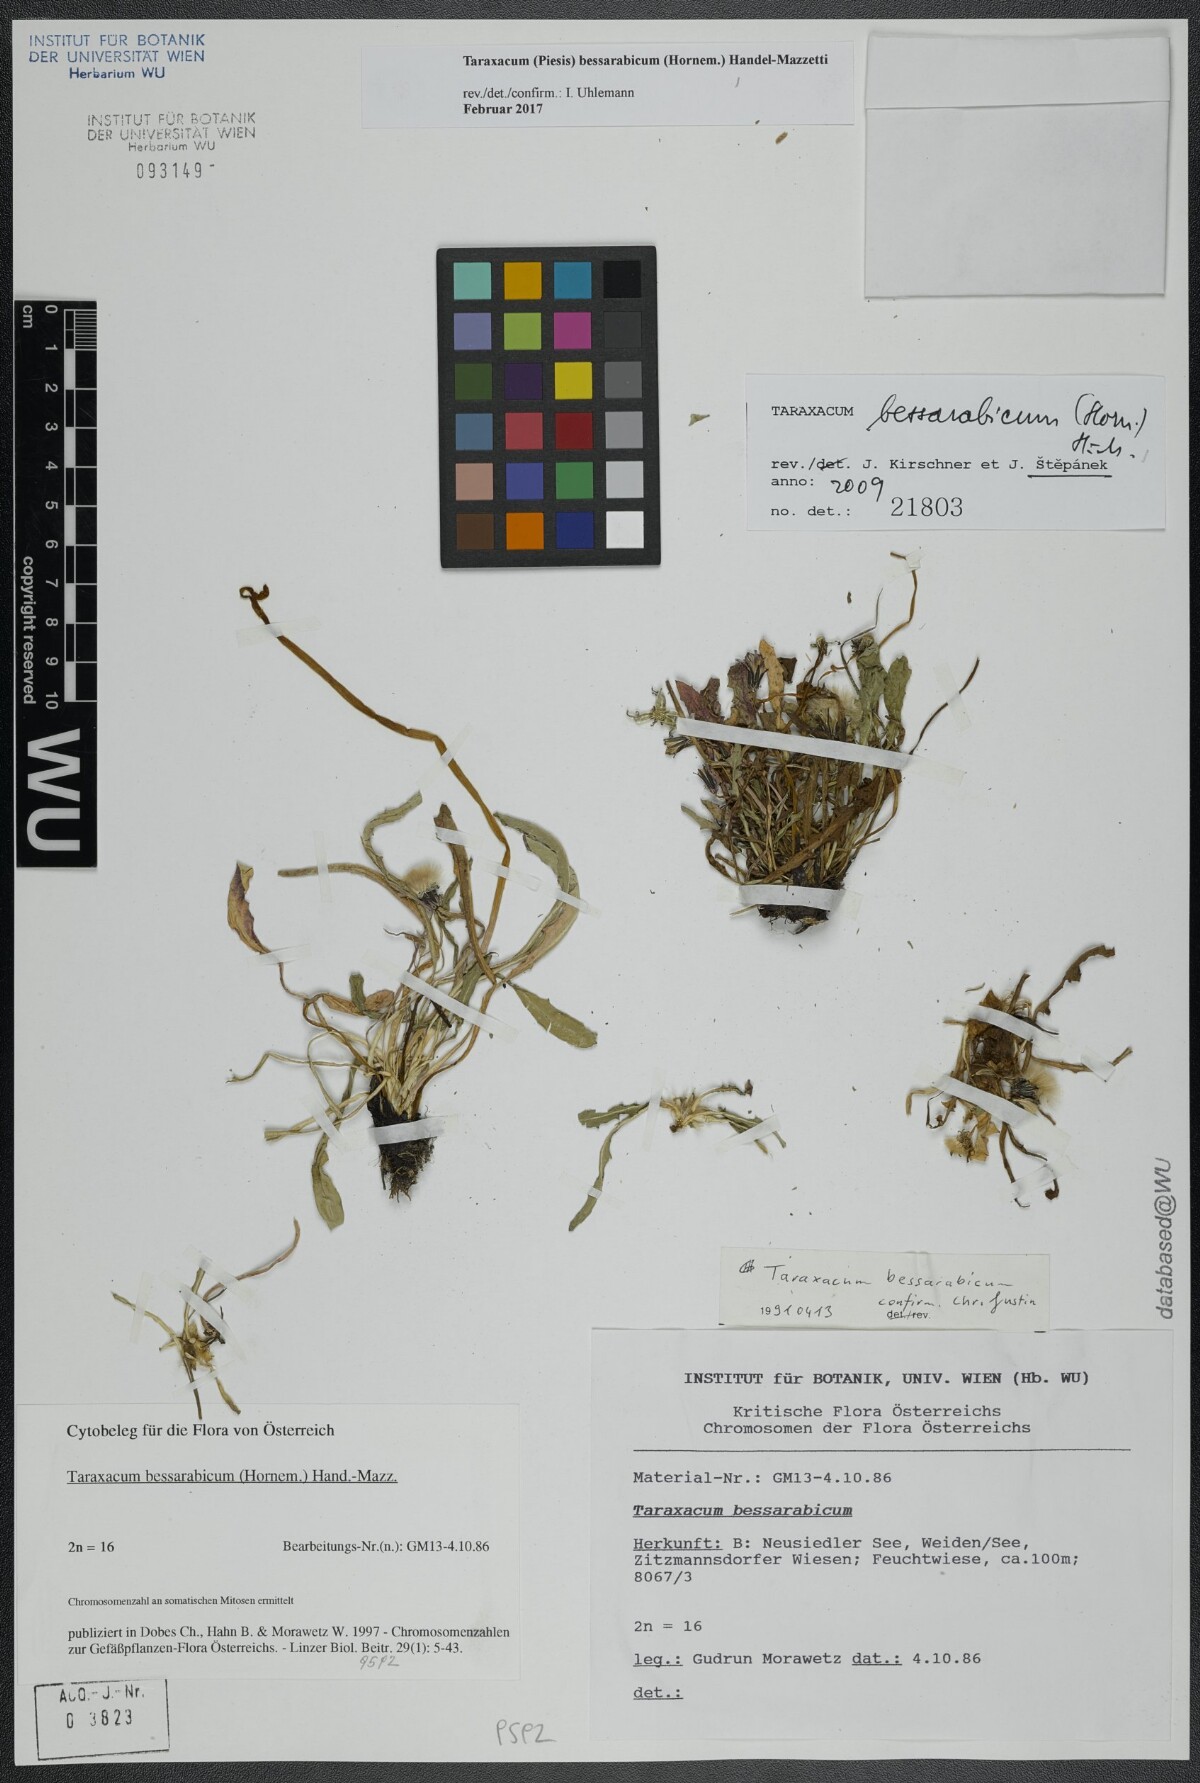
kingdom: Plantae
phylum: Tracheophyta
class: Magnoliopsida
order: Asterales
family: Asteraceae
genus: Taraxacum
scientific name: Taraxacum bessarabicum
